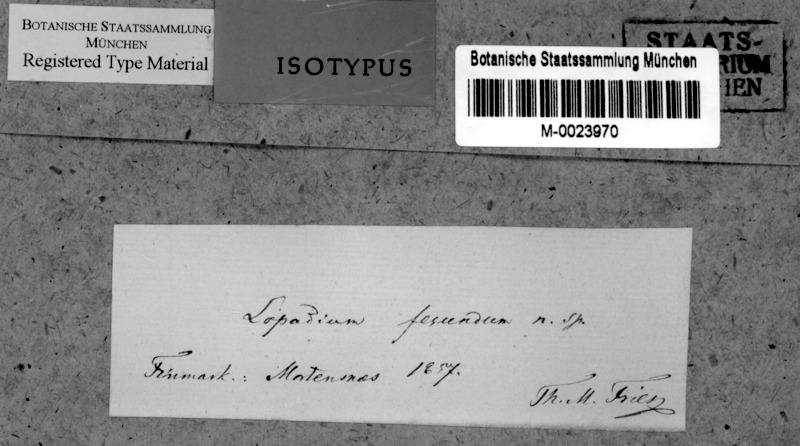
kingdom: Fungi
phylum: Ascomycota
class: Lecanoromycetes
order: Lecanorales
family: Ramalinaceae
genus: Schadonia
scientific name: Schadonia fecunda
